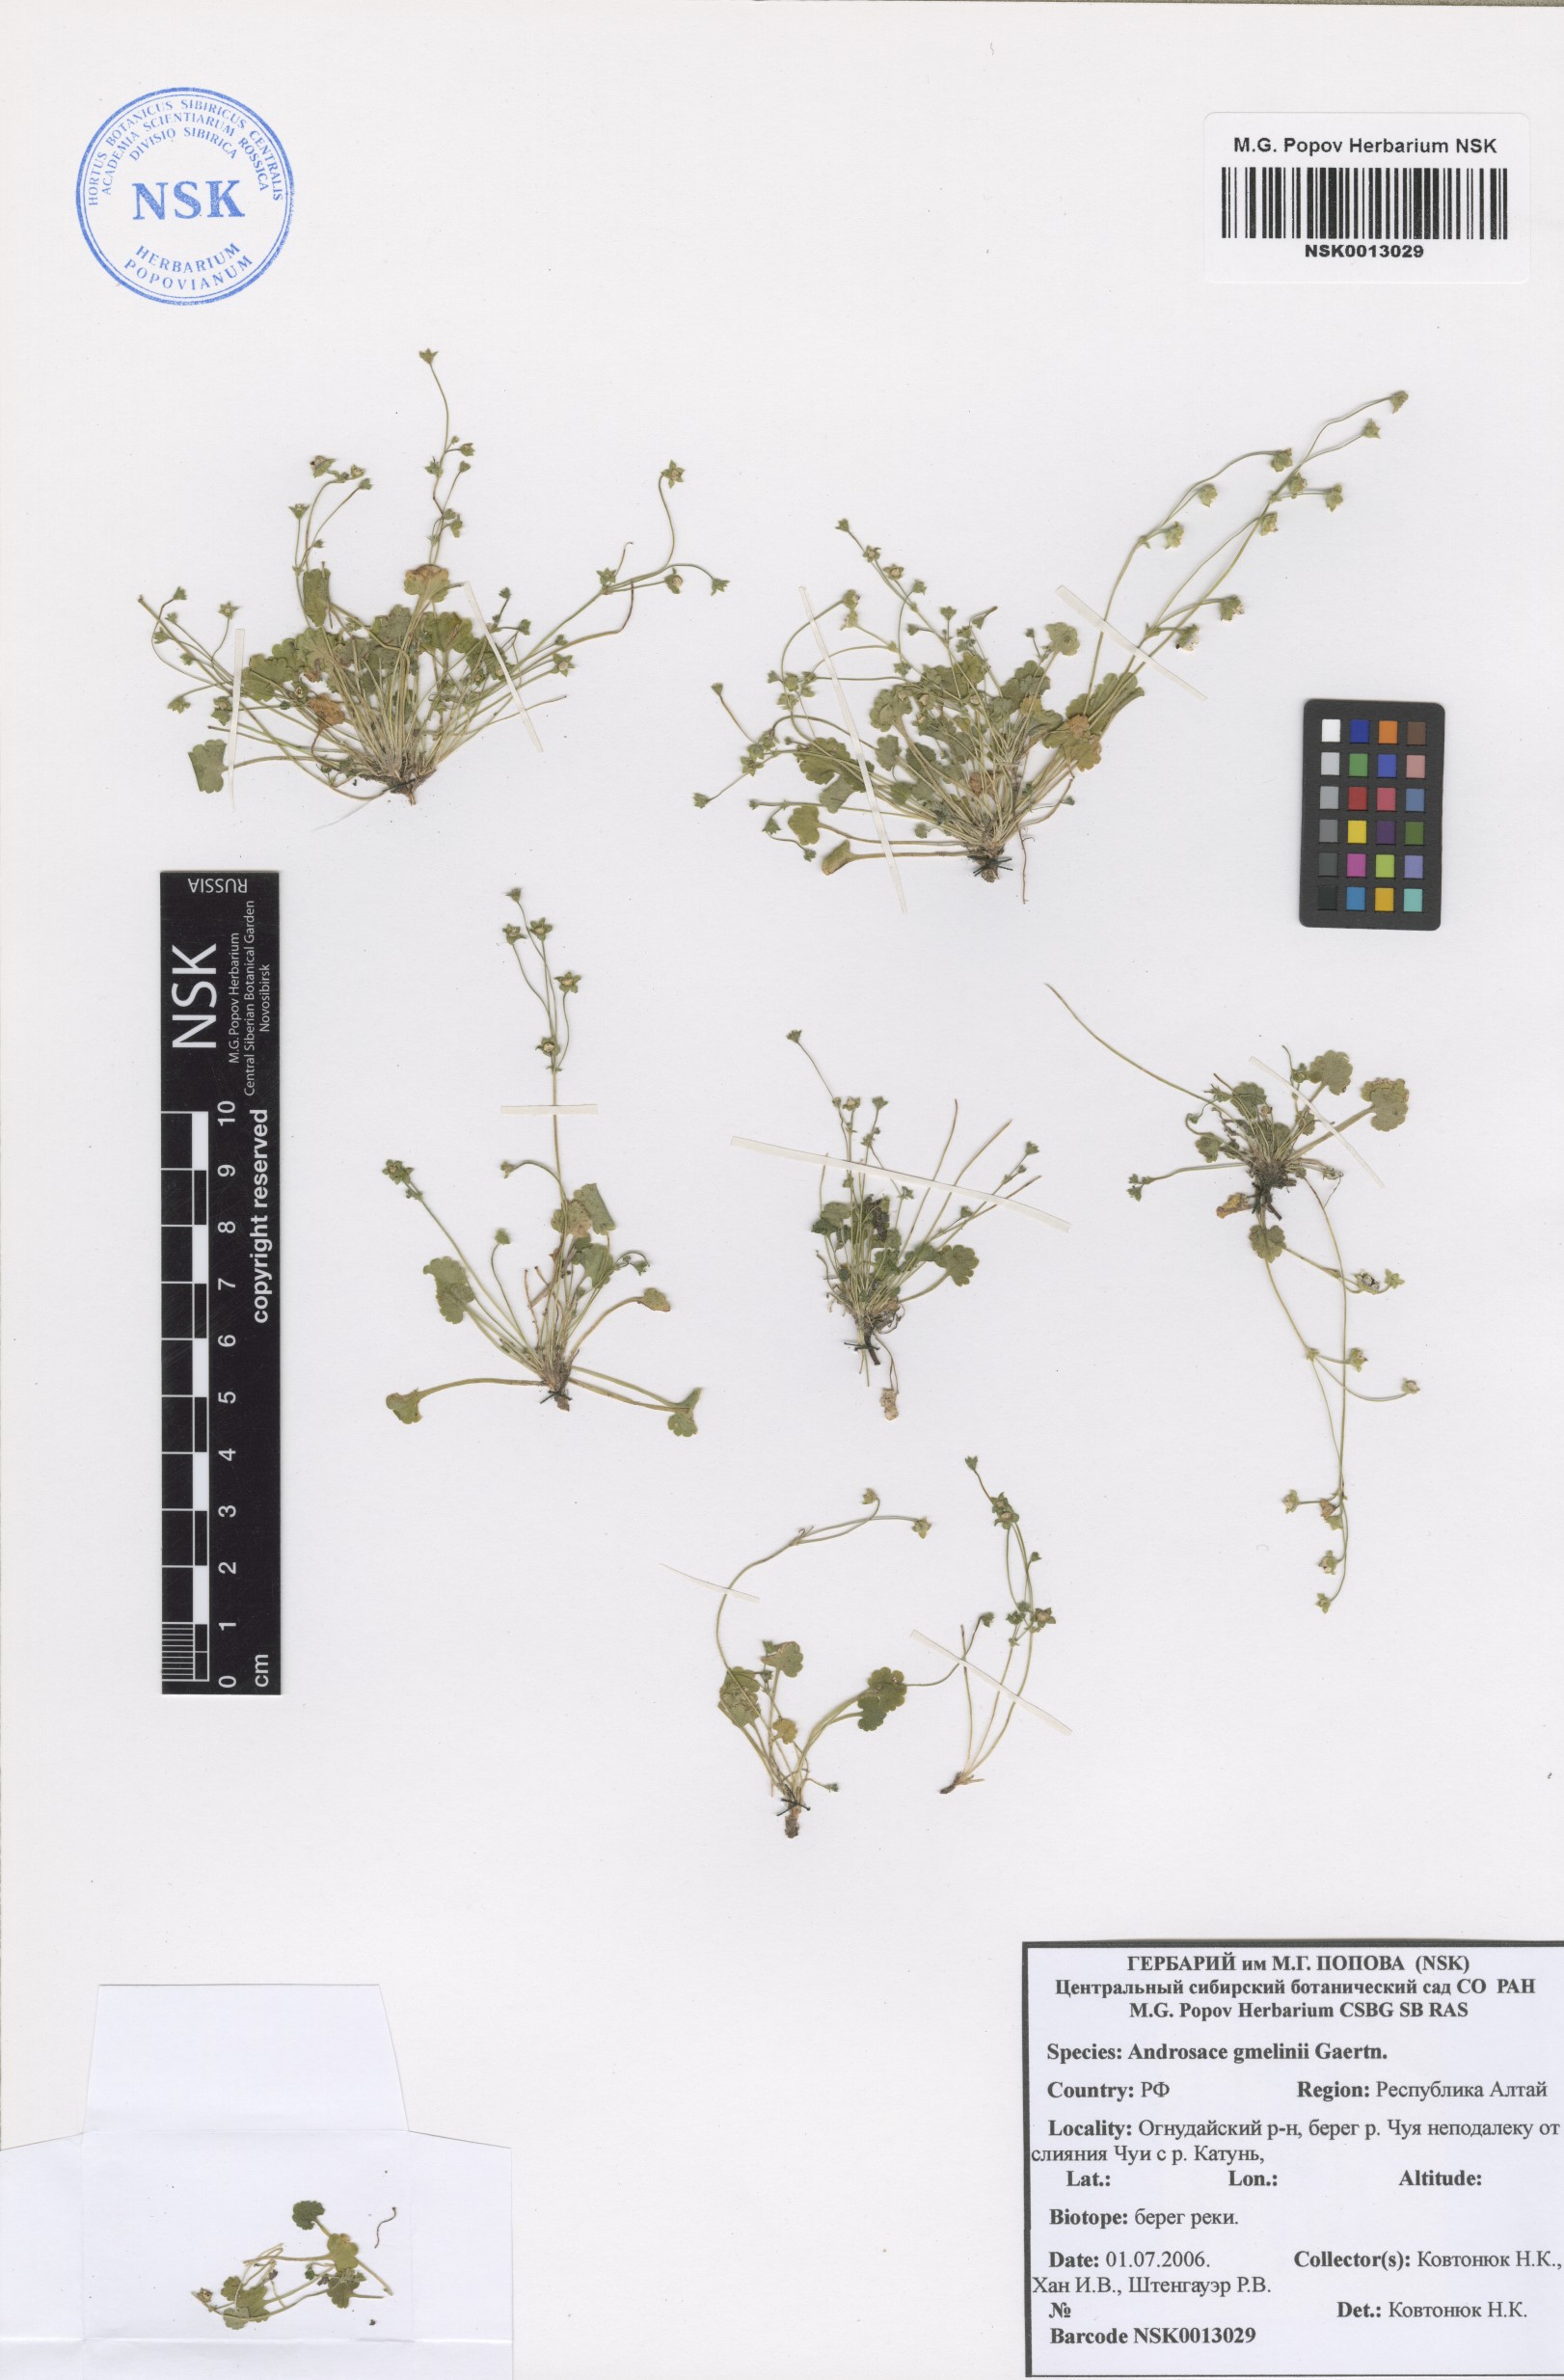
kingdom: Plantae
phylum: Tracheophyta
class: Magnoliopsida
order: Ericales
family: Primulaceae
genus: Androsace
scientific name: Androsace gmelinii
